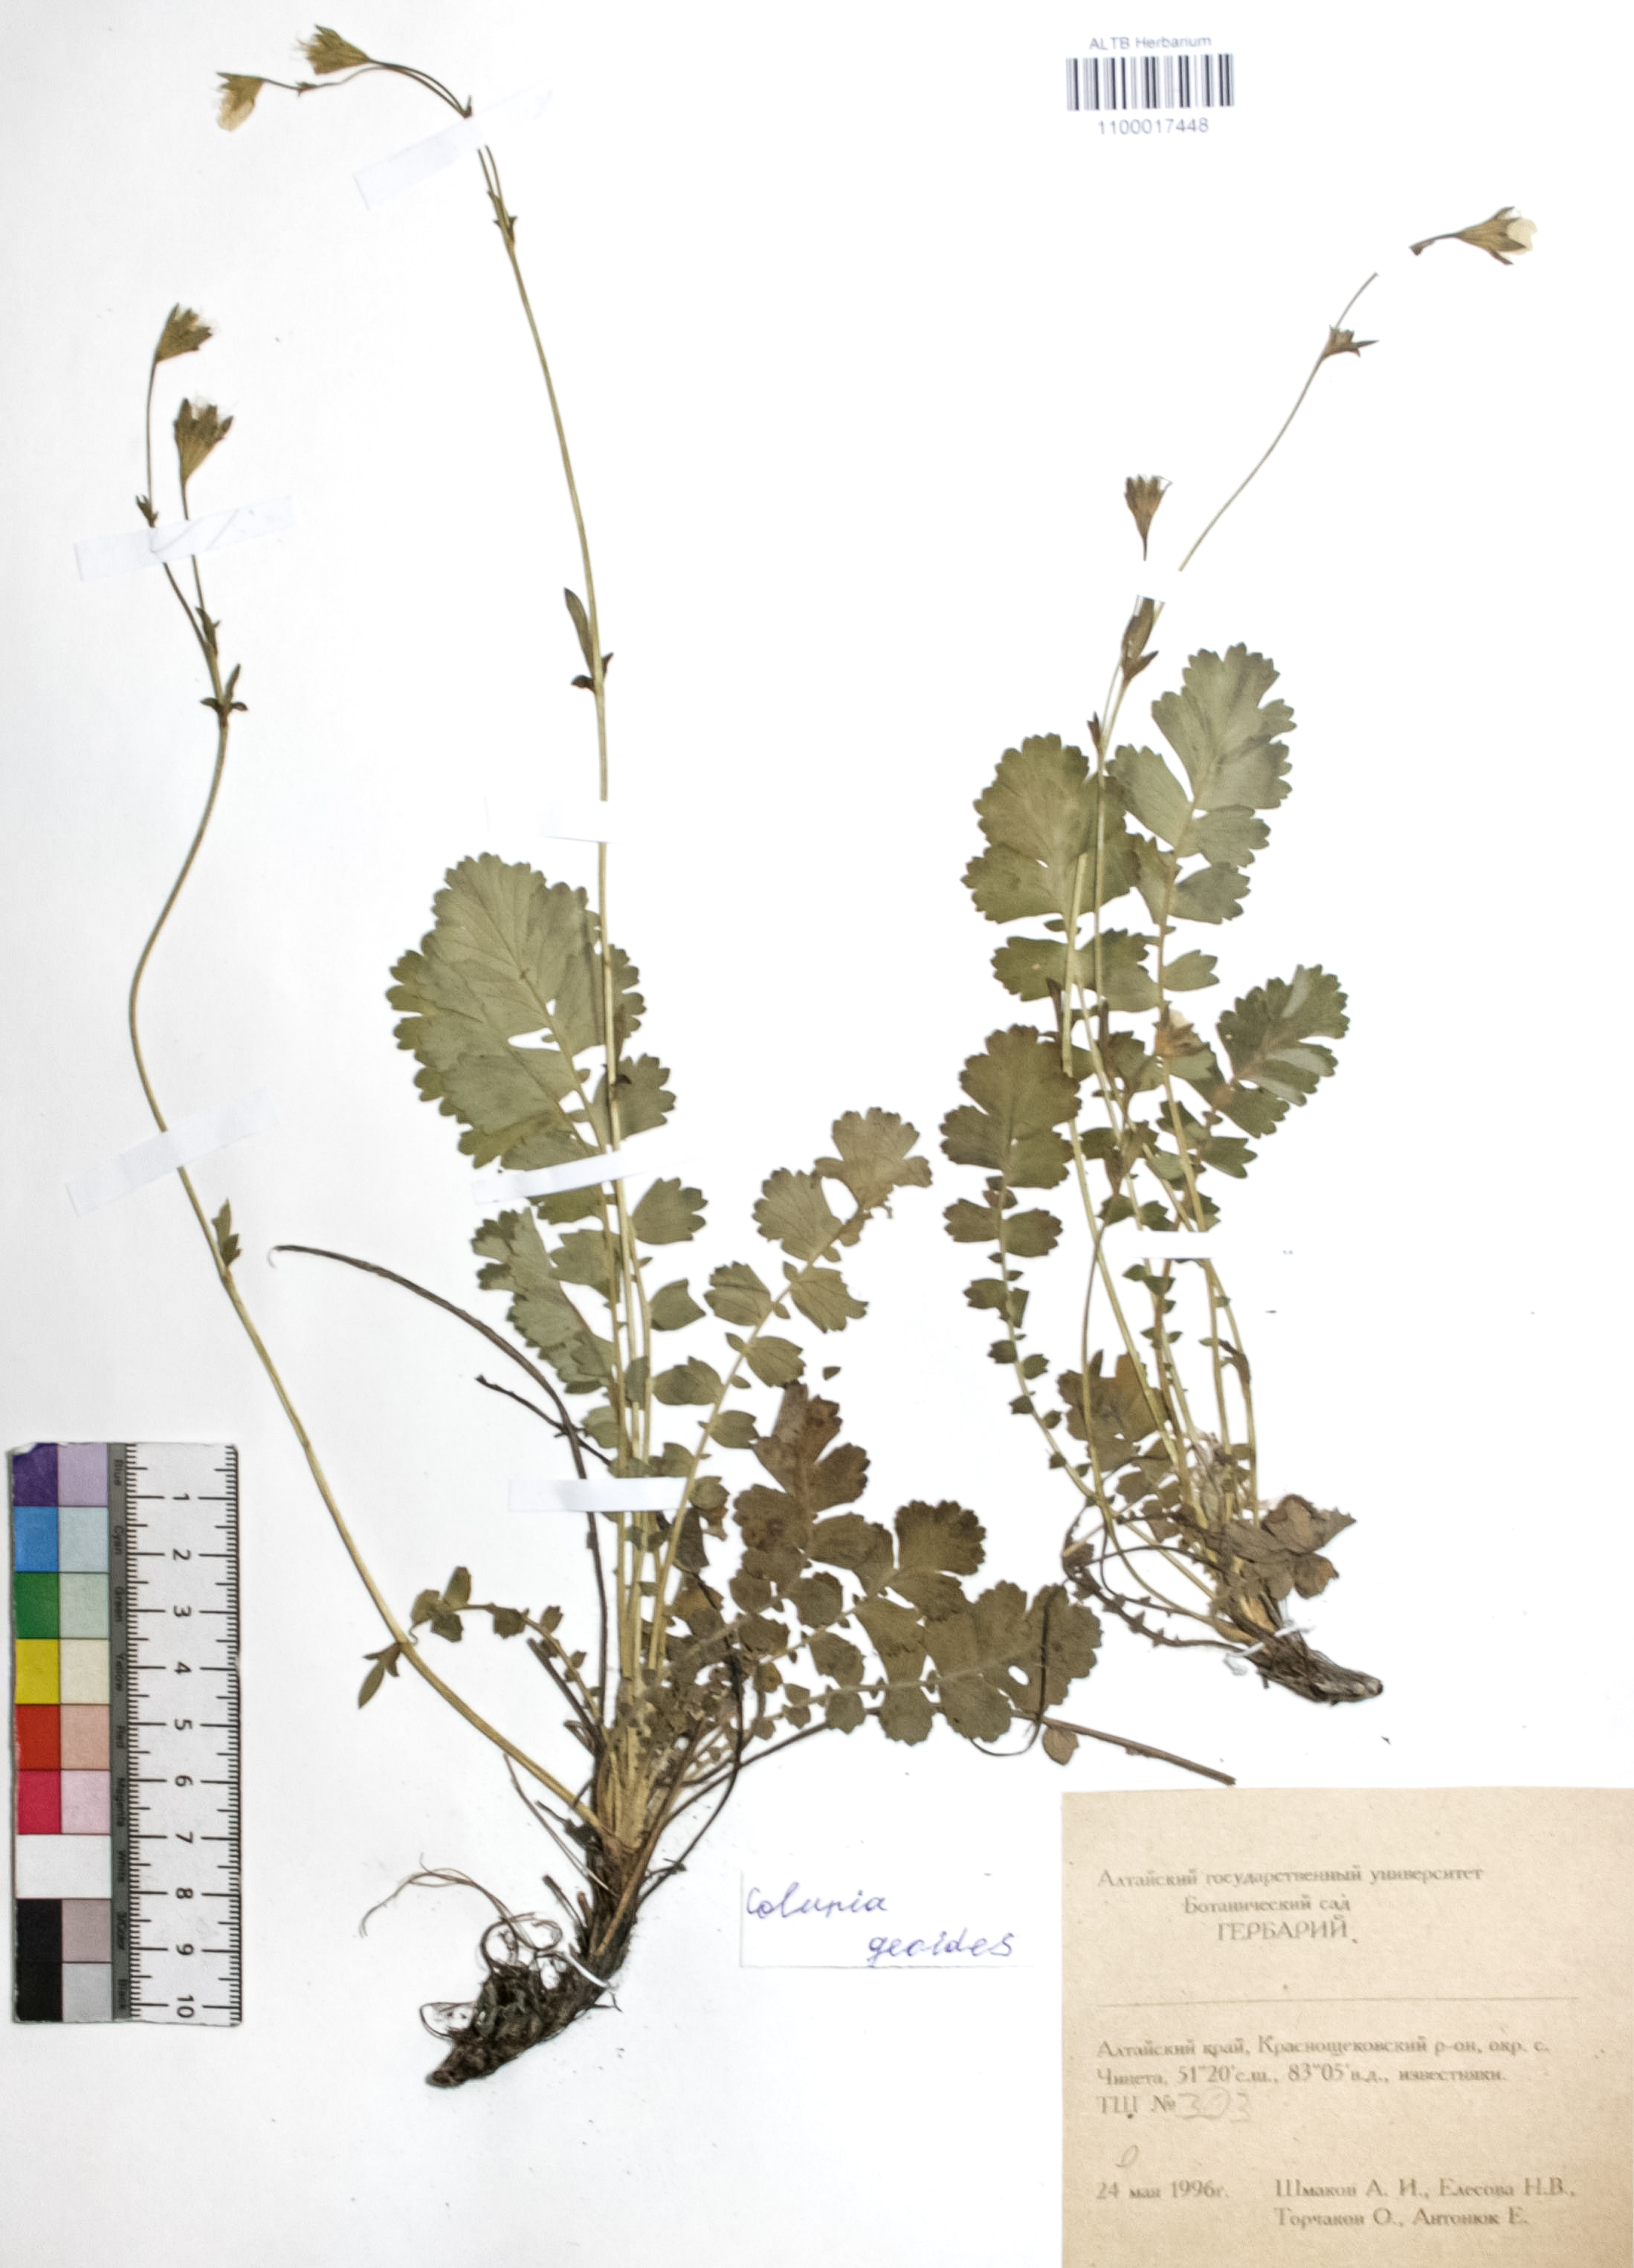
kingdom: Plantae
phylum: Tracheophyta
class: Magnoliopsida
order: Rosales
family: Rosaceae
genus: Geum
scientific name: Geum geoides
